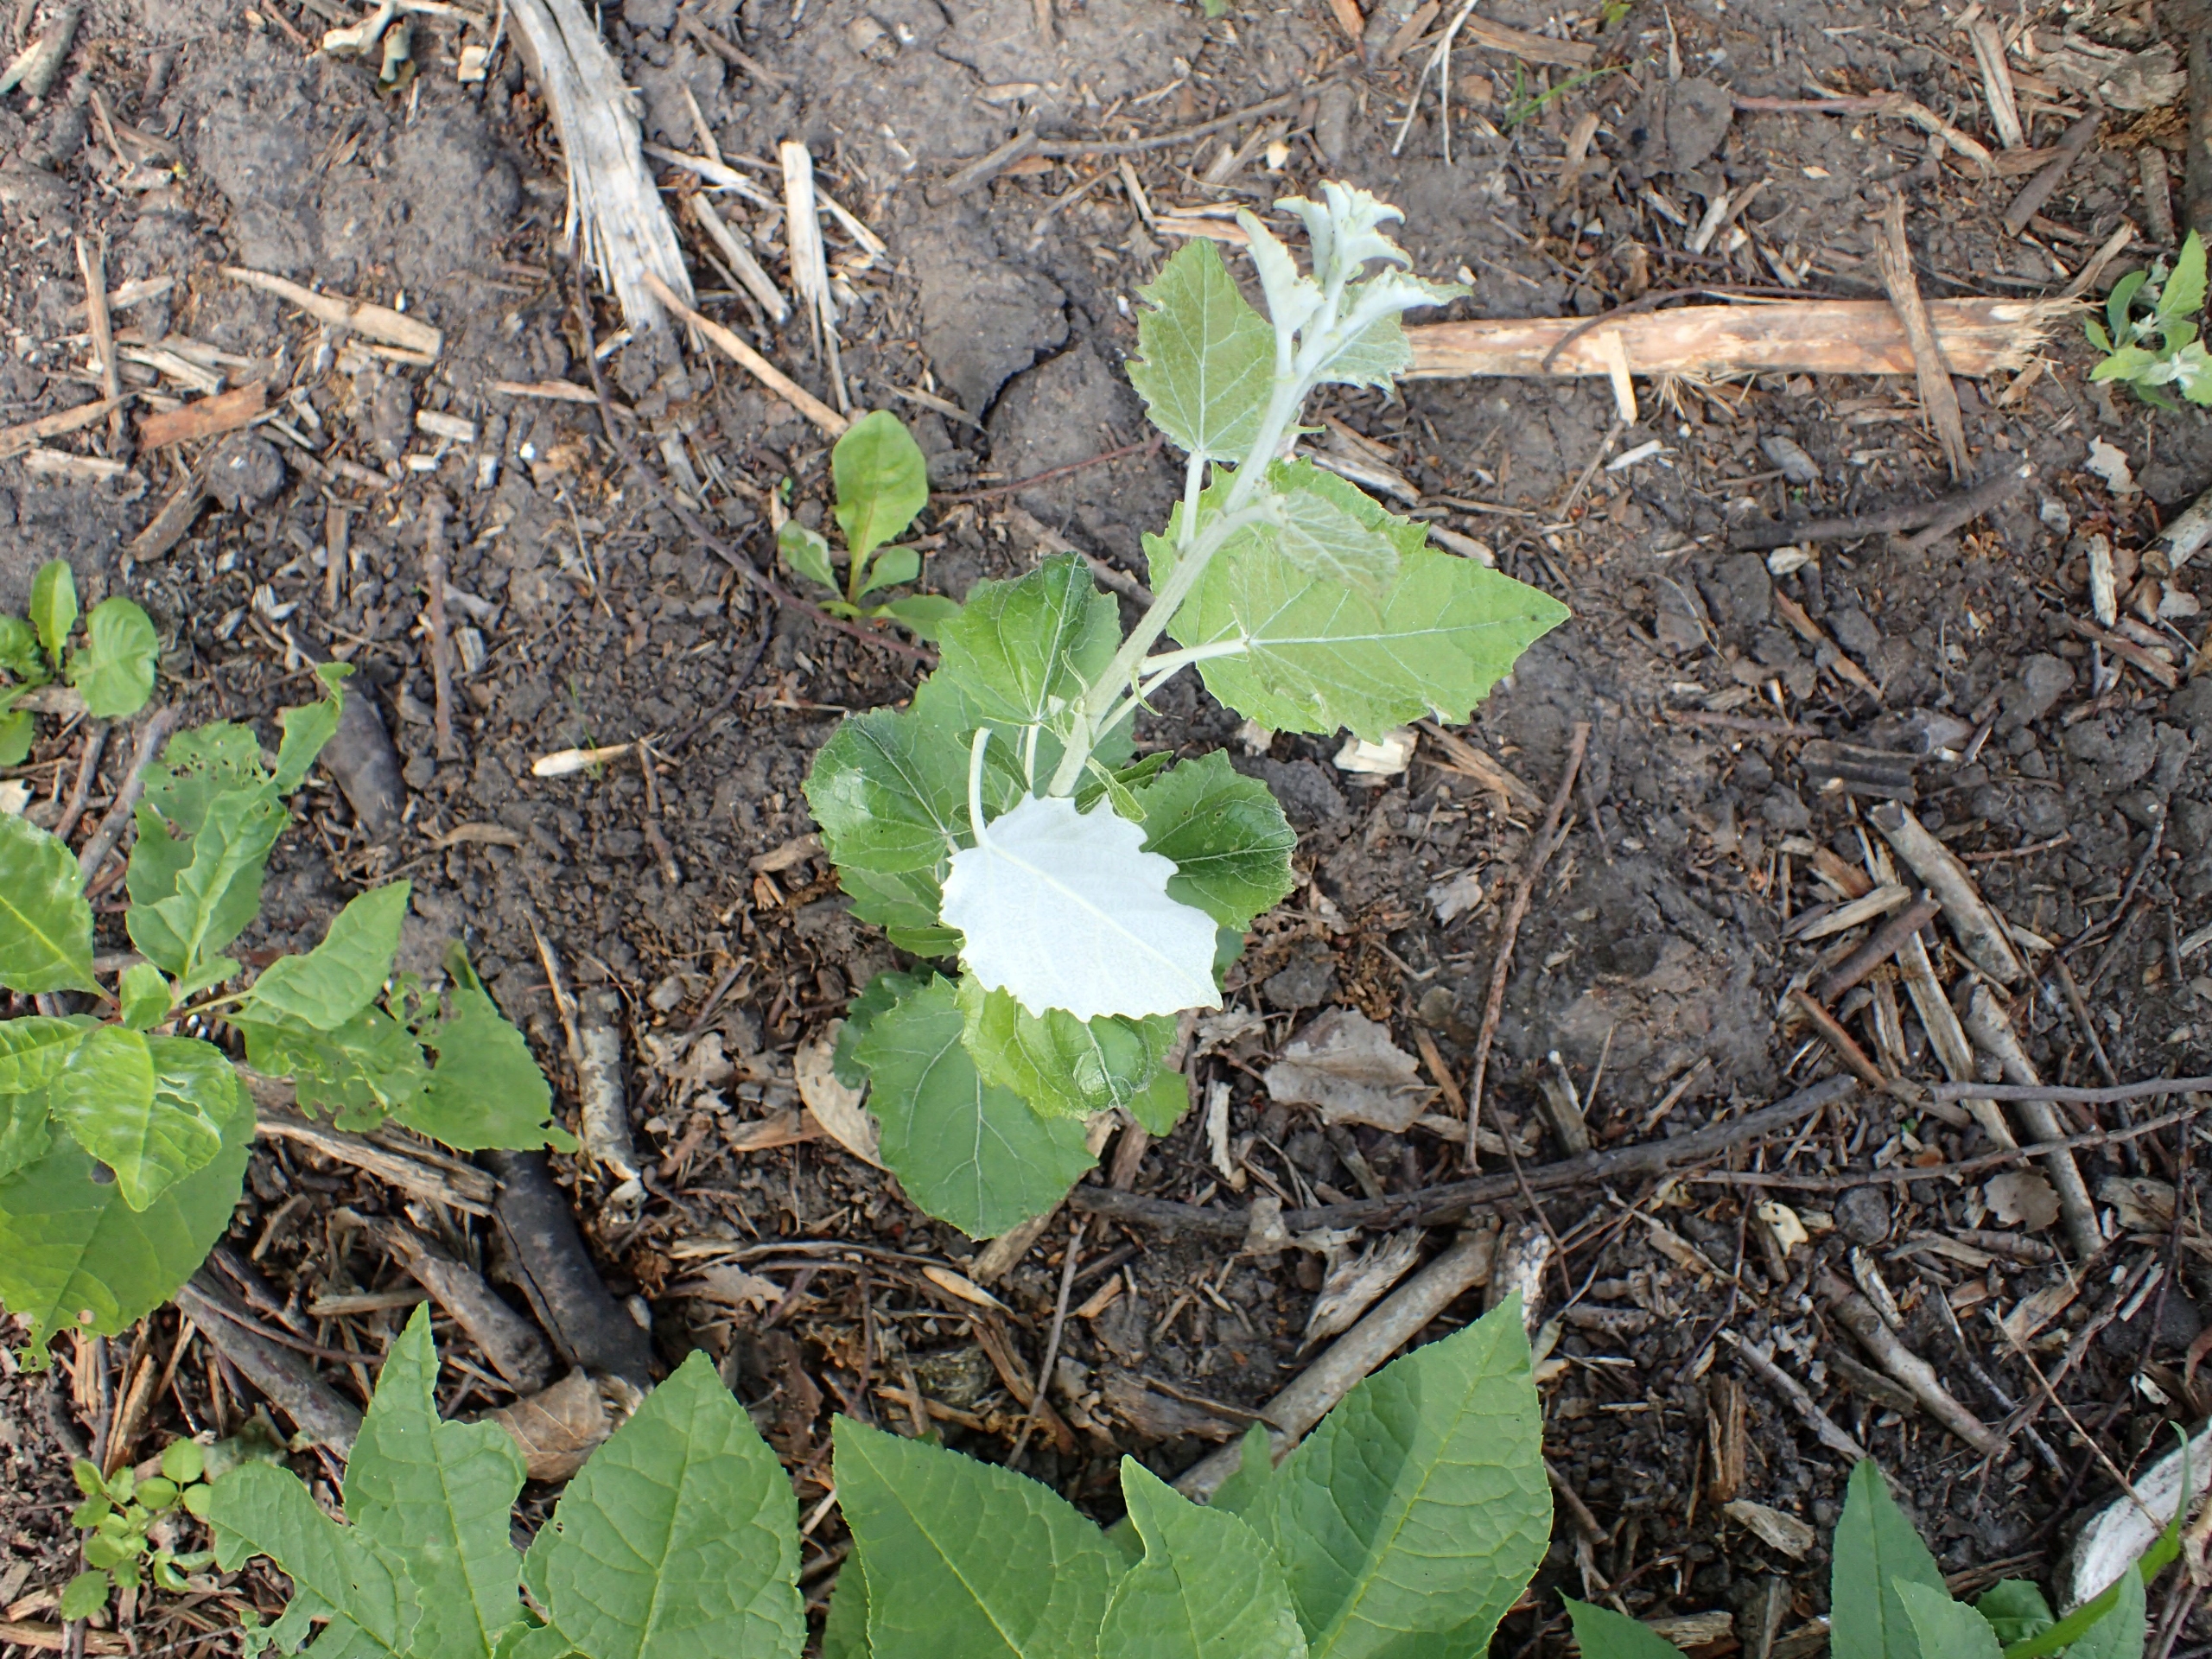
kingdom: Plantae
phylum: Tracheophyta
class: Magnoliopsida
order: Malpighiales
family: Salicaceae
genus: Populus
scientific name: Populus canescens
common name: Grå-poppel
